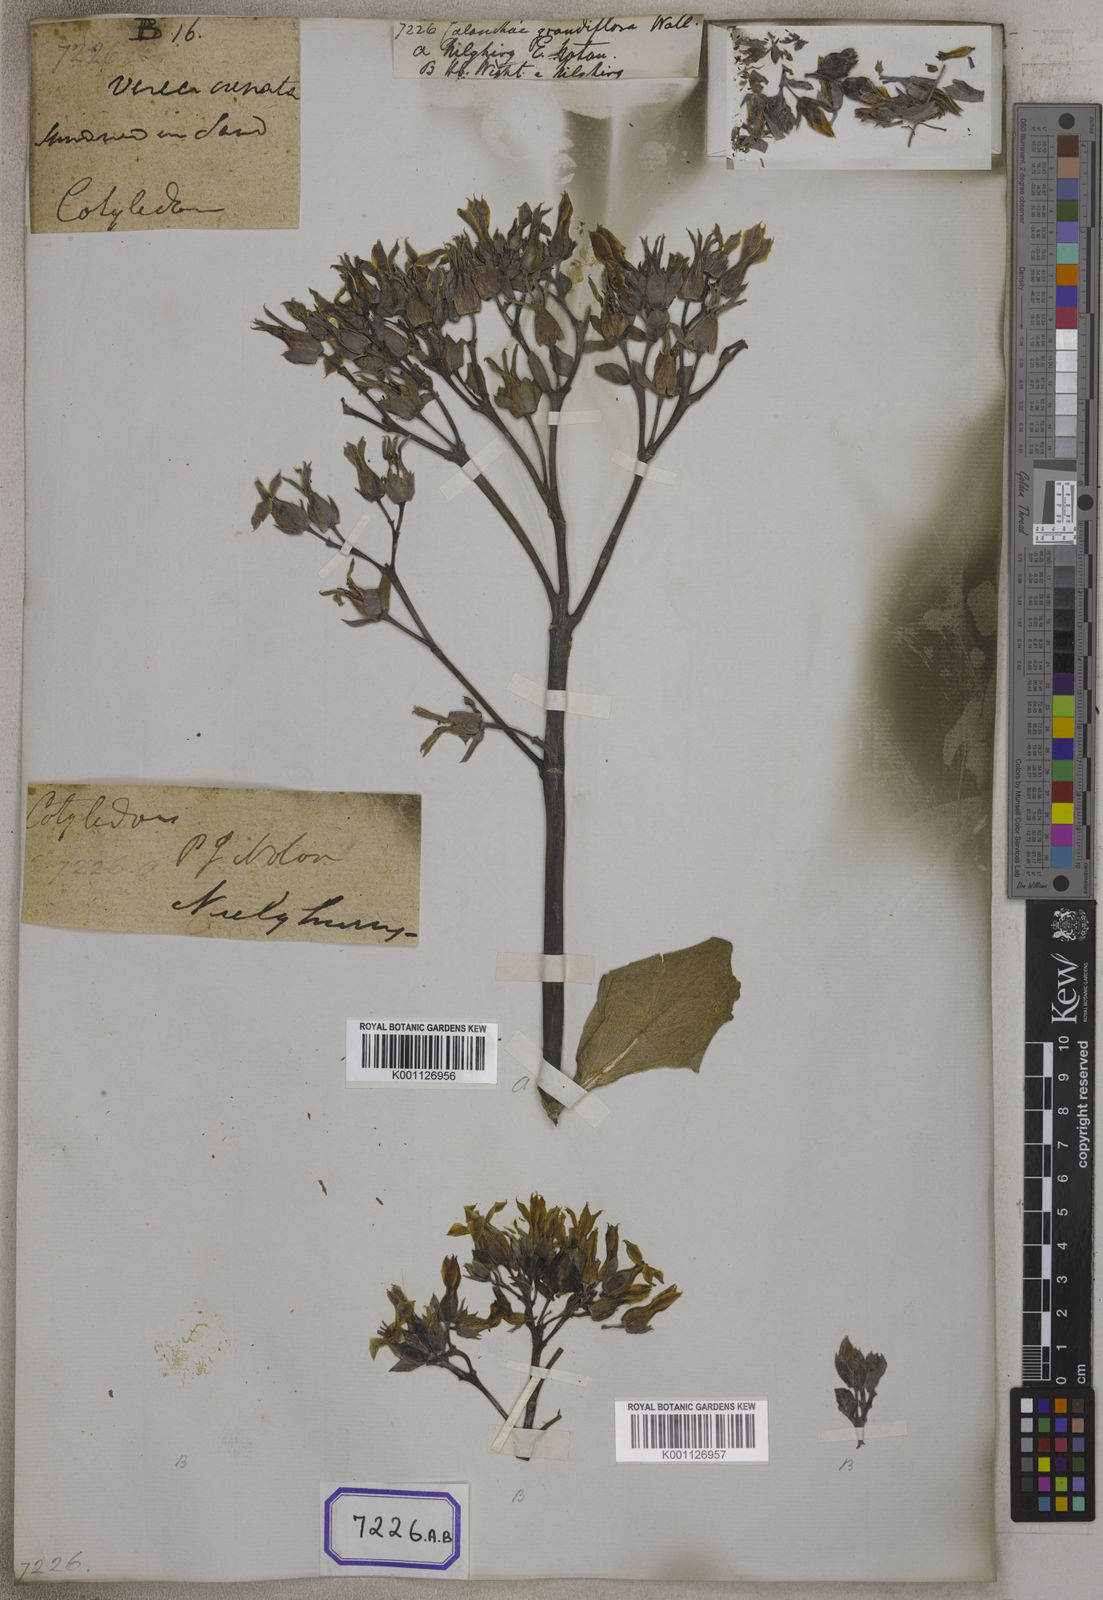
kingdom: Plantae
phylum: Tracheophyta
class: Magnoliopsida
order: Saxifragales
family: Crassulaceae
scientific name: Crassulaceae
